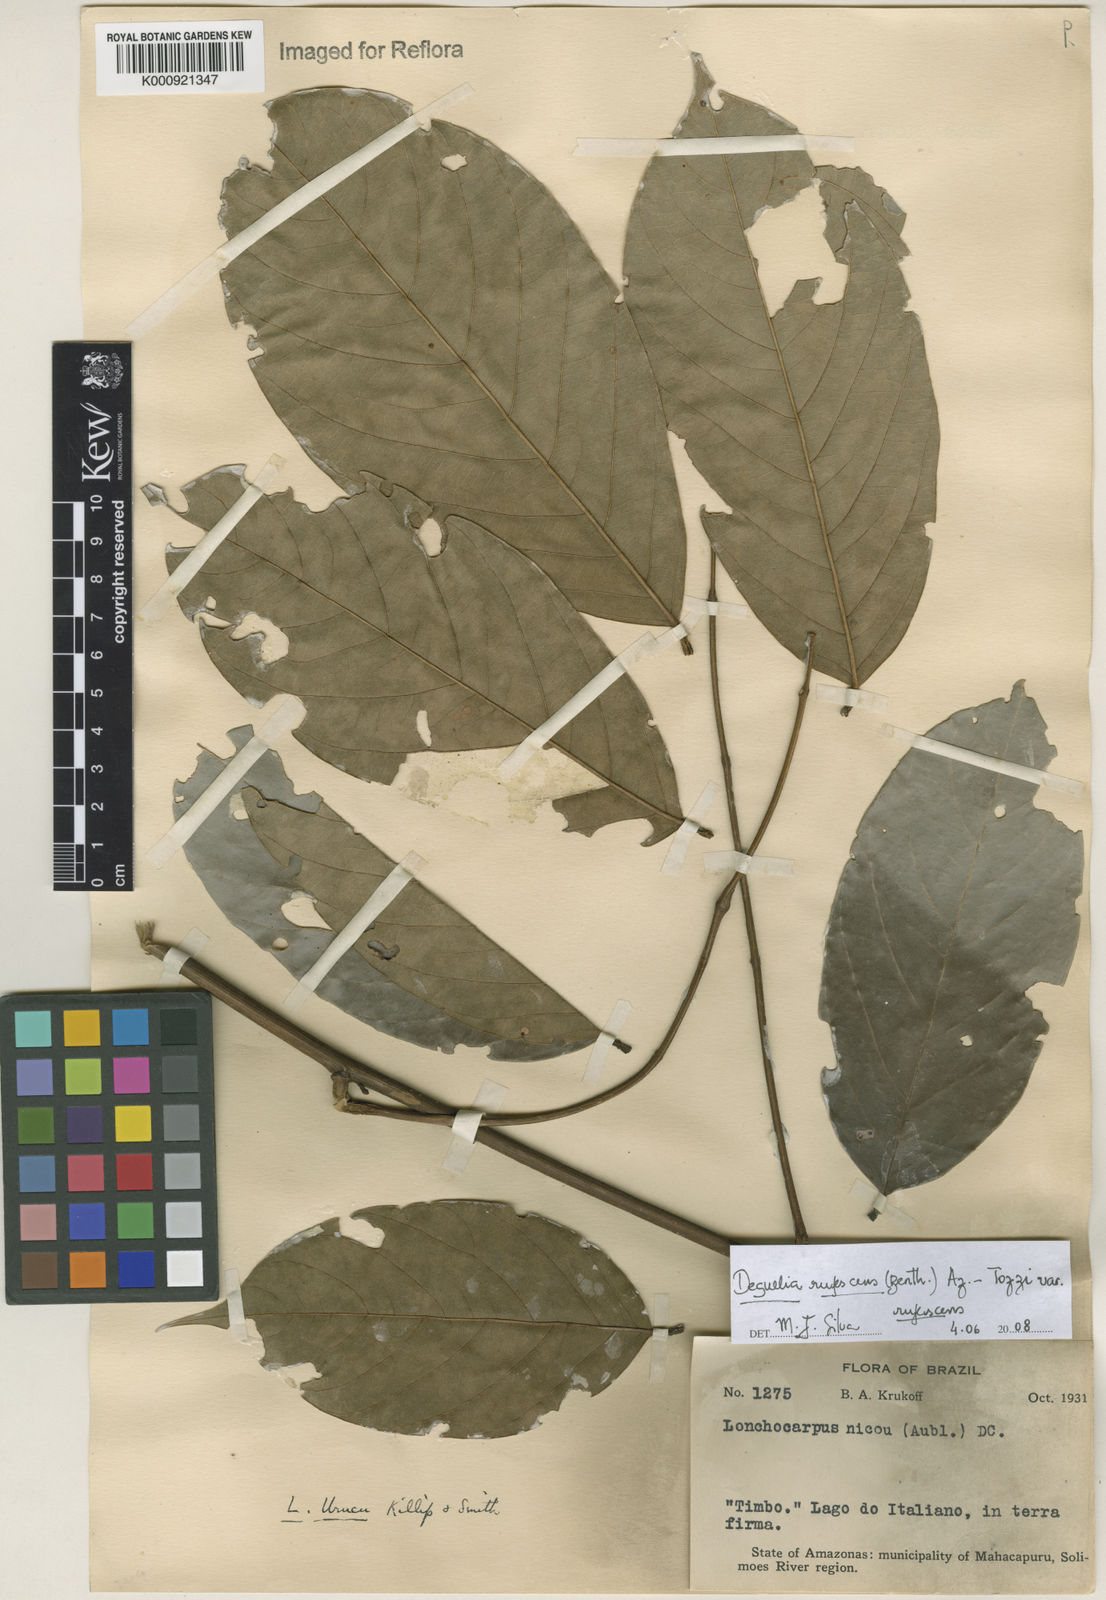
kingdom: Plantae
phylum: Tracheophyta
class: Magnoliopsida
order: Fabales
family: Fabaceae
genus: Deguelia
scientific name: Deguelia
